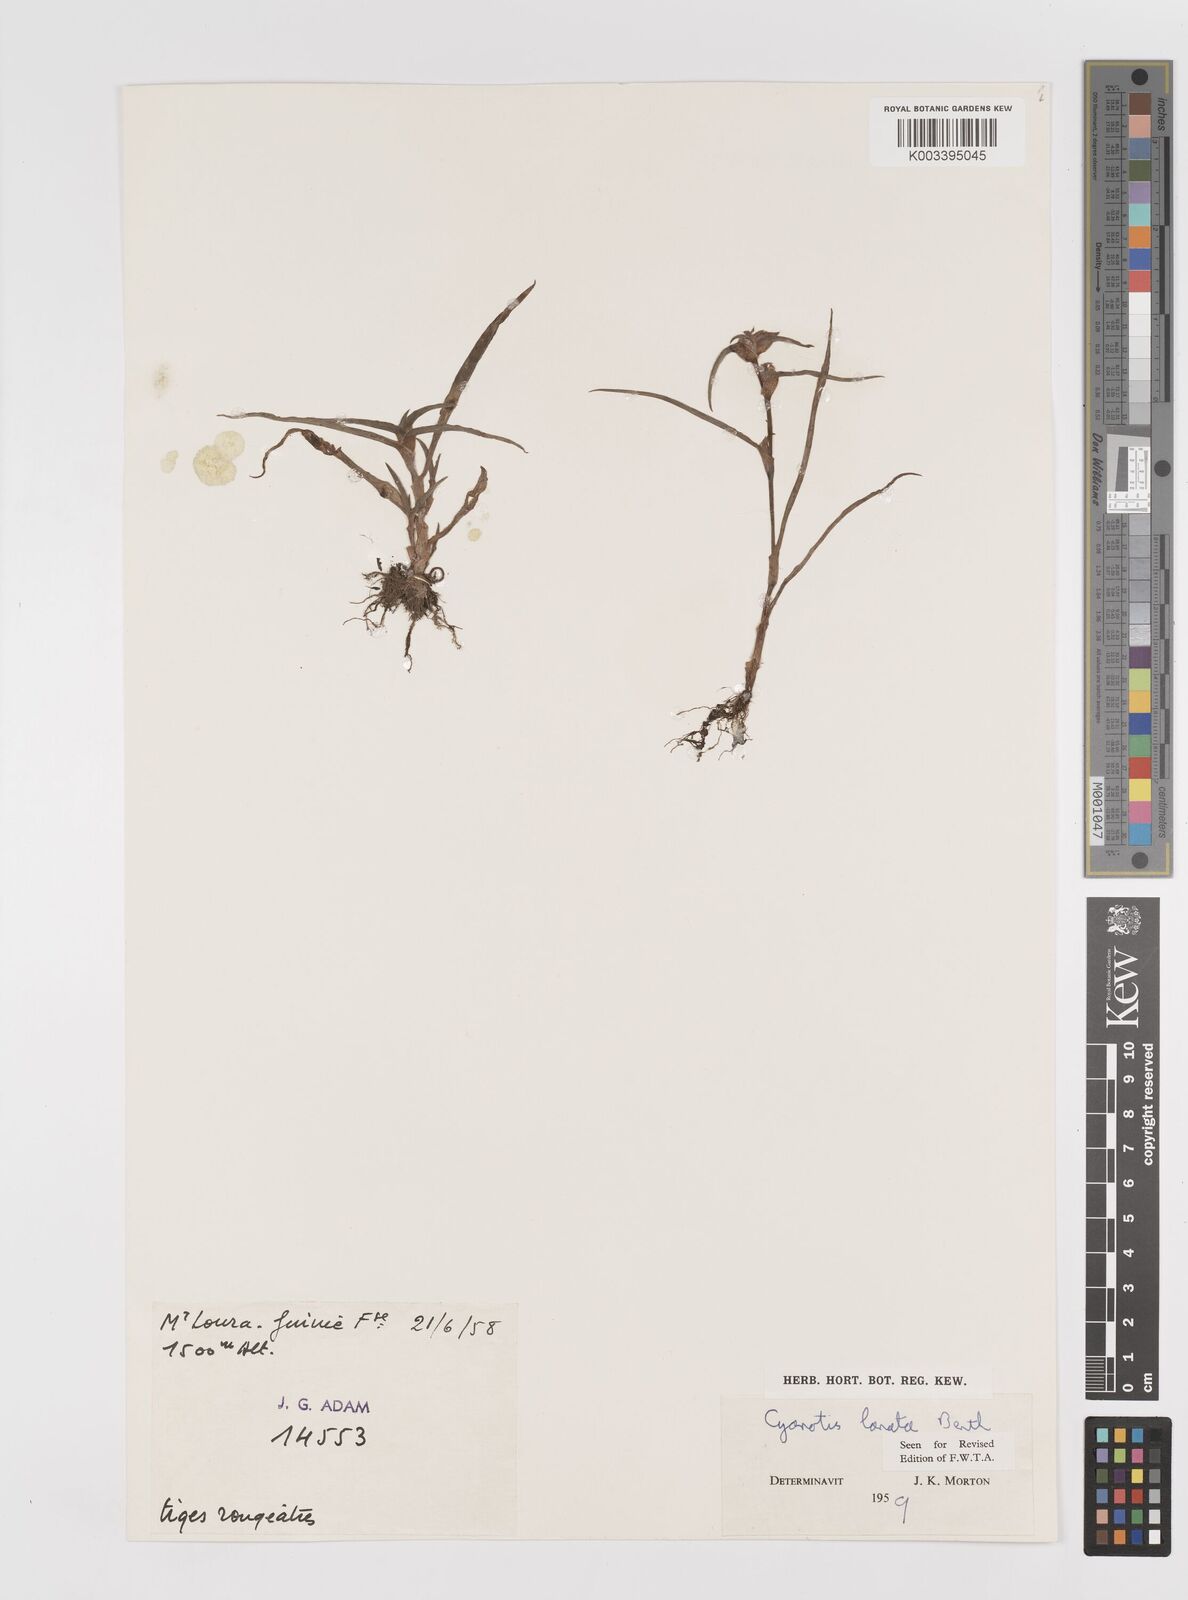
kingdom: Plantae
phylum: Tracheophyta
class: Liliopsida
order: Commelinales
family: Commelinaceae
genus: Cyanotis
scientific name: Cyanotis lanata
